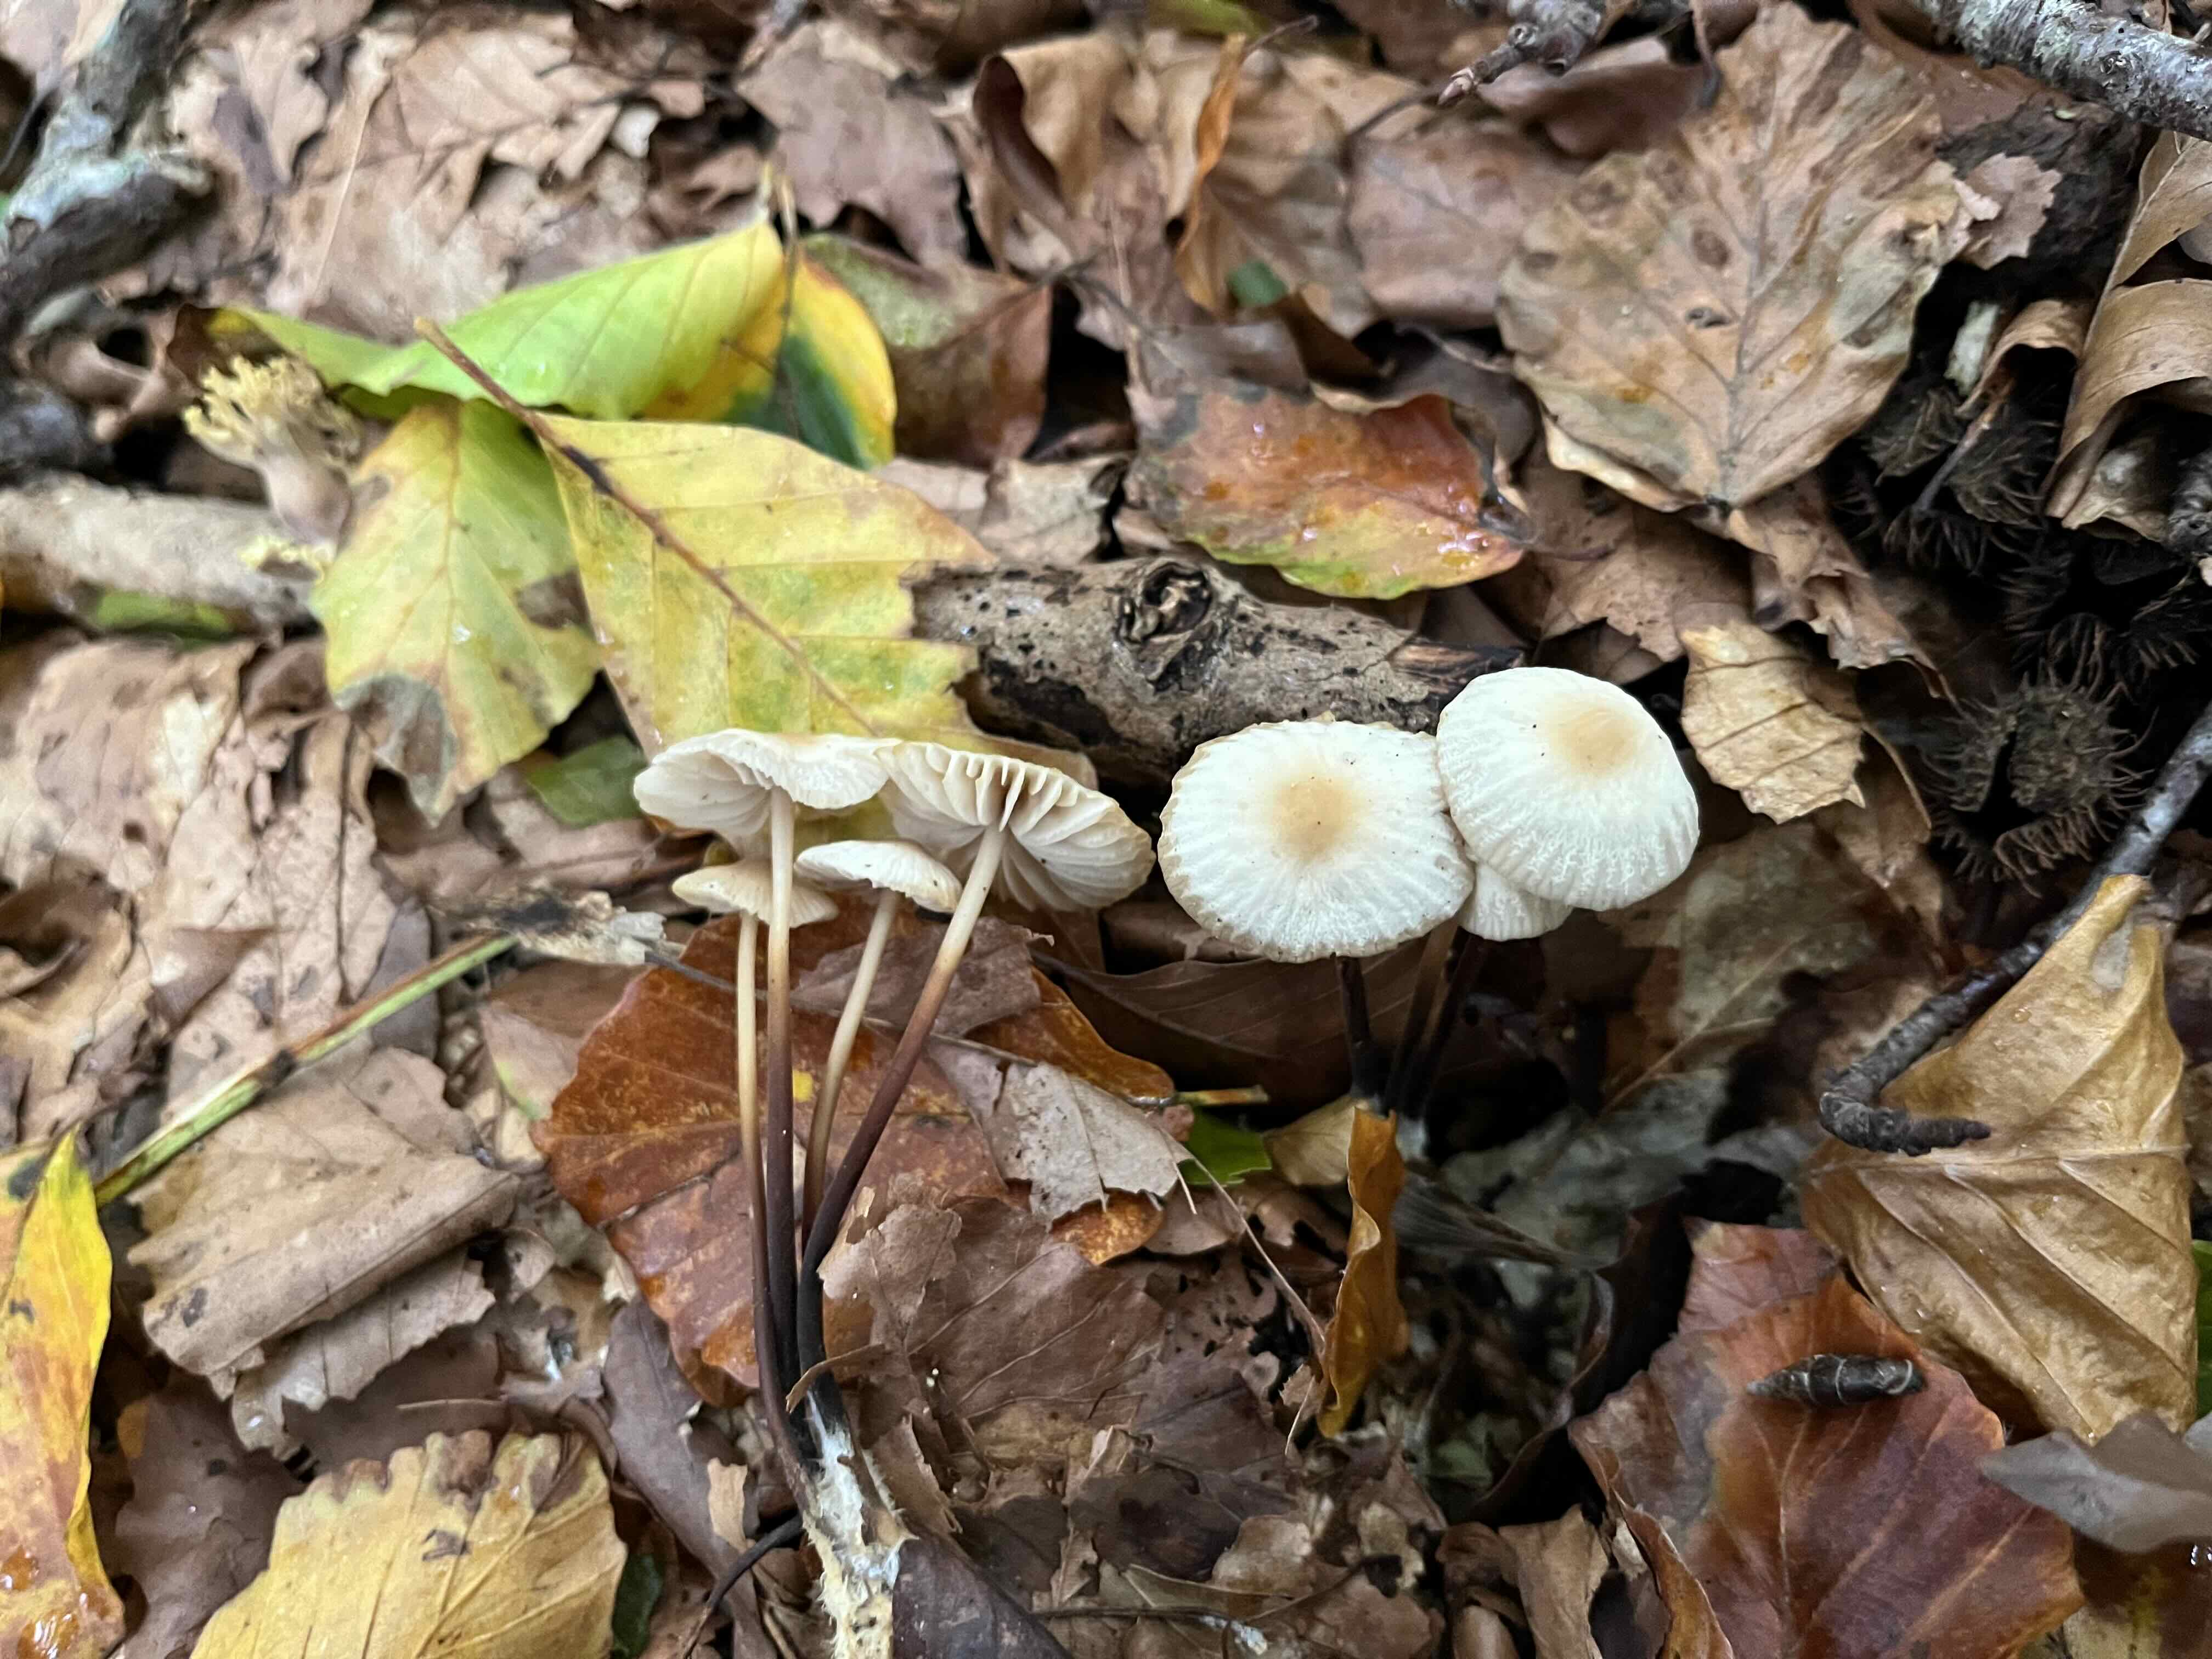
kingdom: Fungi
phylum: Basidiomycota
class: Agaricomycetes
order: Agaricales
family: Marasmiaceae
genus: Marasmius
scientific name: Marasmius torquescens
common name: filtfodet bruskhat
